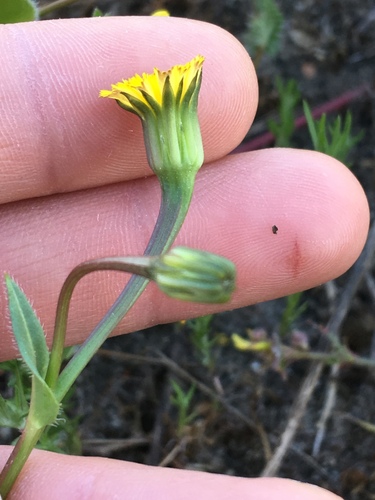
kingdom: Plantae
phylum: Tracheophyta
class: Magnoliopsida
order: Asterales
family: Asteraceae
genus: Hedypnois
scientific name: Hedypnois cretica
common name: Scaly hawkbit
